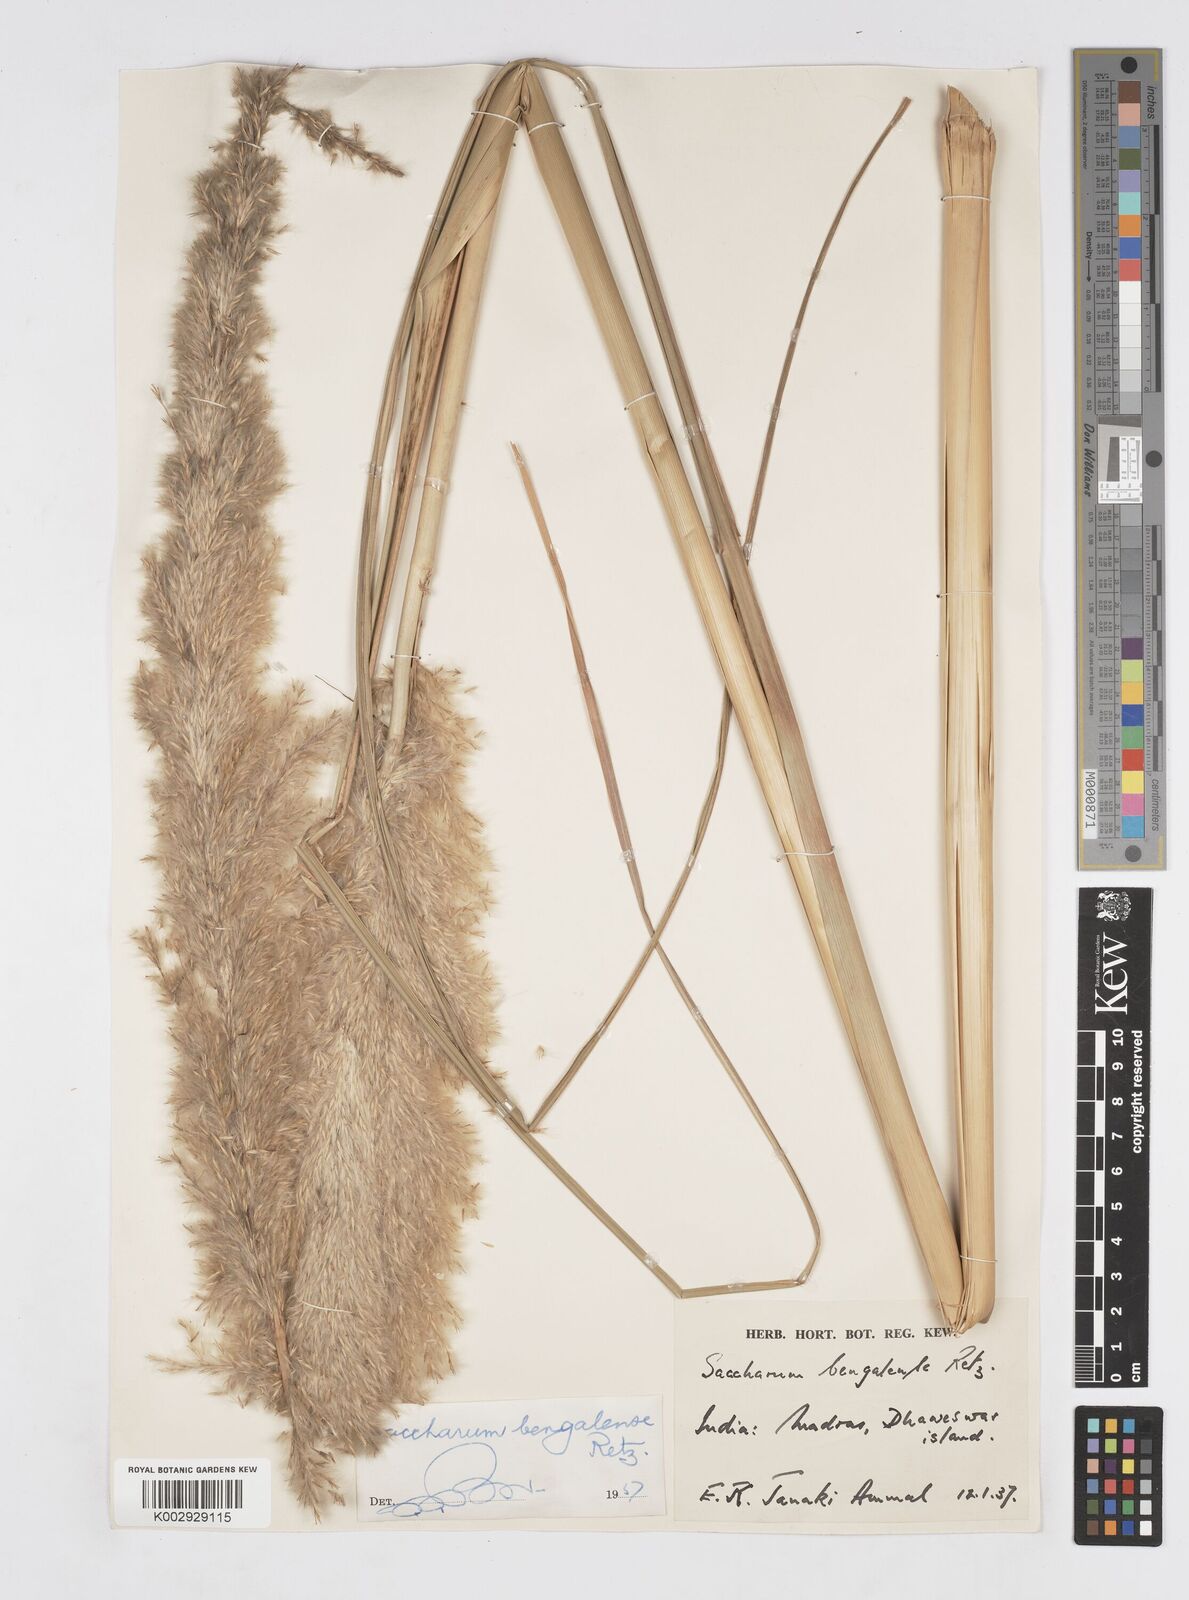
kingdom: Plantae
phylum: Tracheophyta
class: Liliopsida
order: Poales
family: Poaceae
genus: Tripidium
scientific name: Tripidium bengalense
